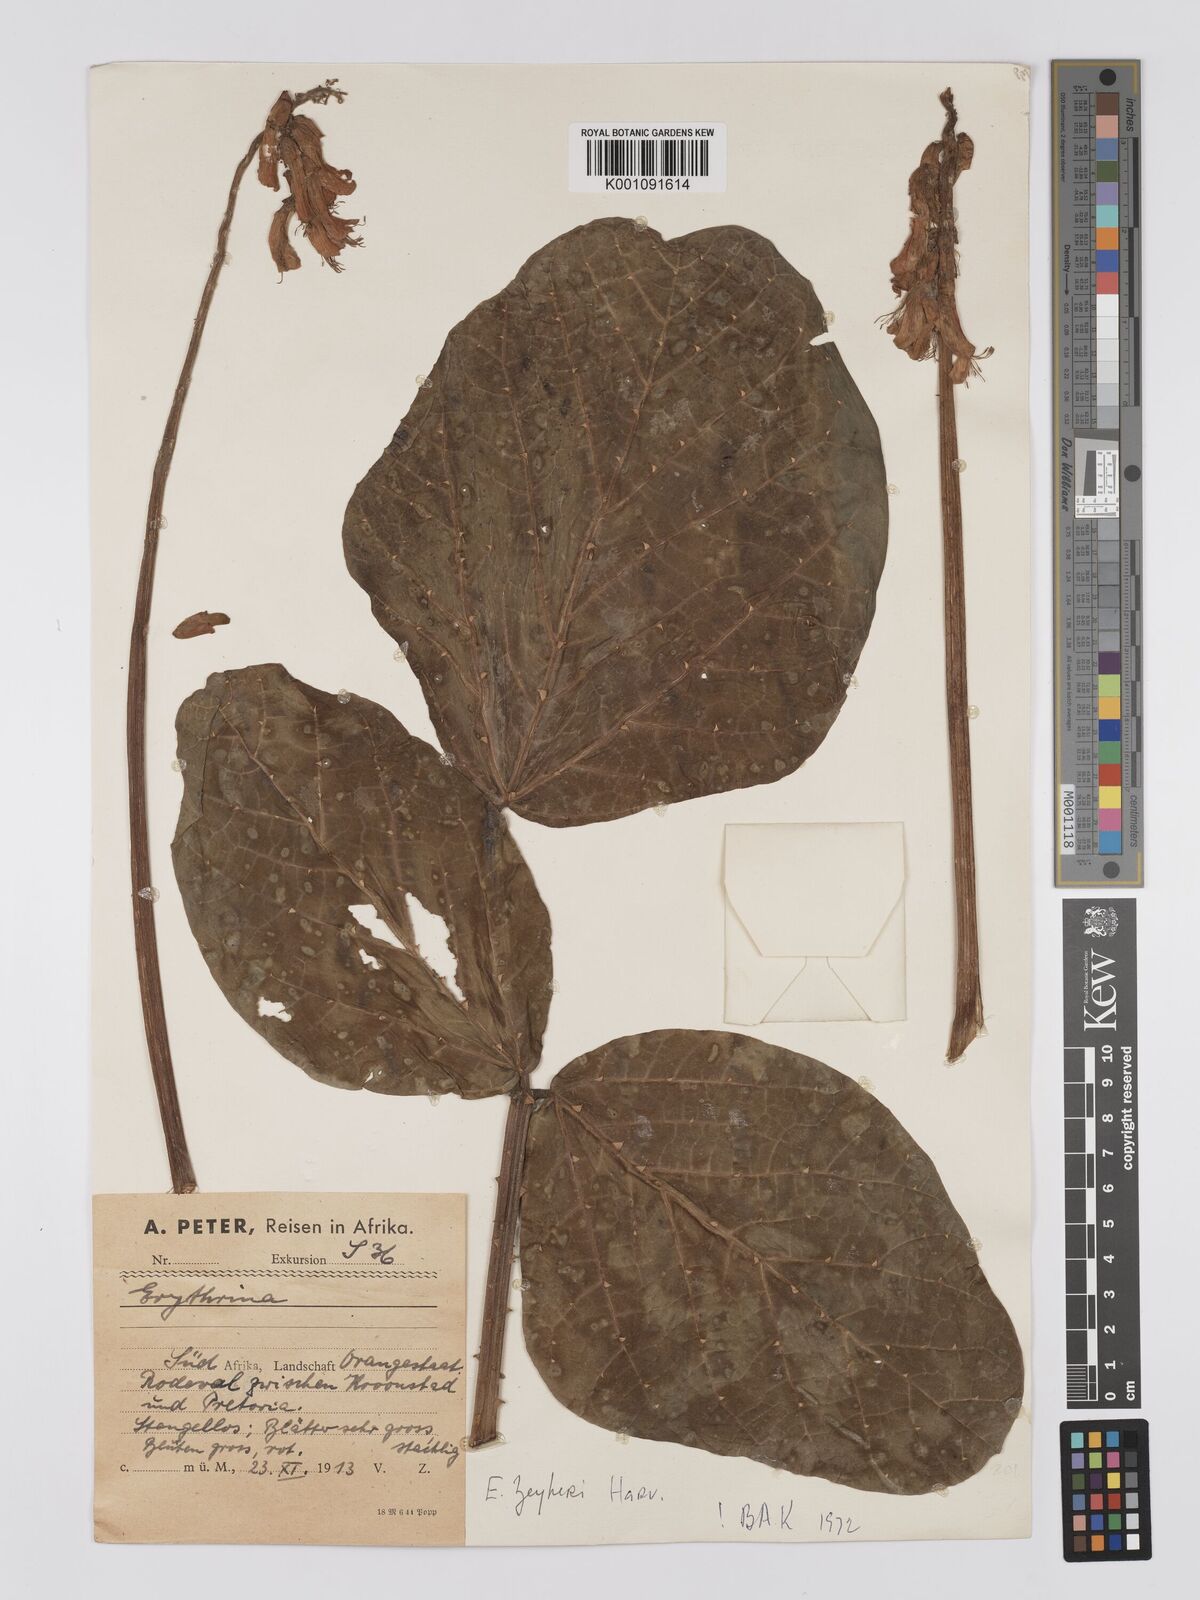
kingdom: Plantae
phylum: Tracheophyta
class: Magnoliopsida
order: Fabales
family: Fabaceae
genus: Erythrina
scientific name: Erythrina zeyheri
